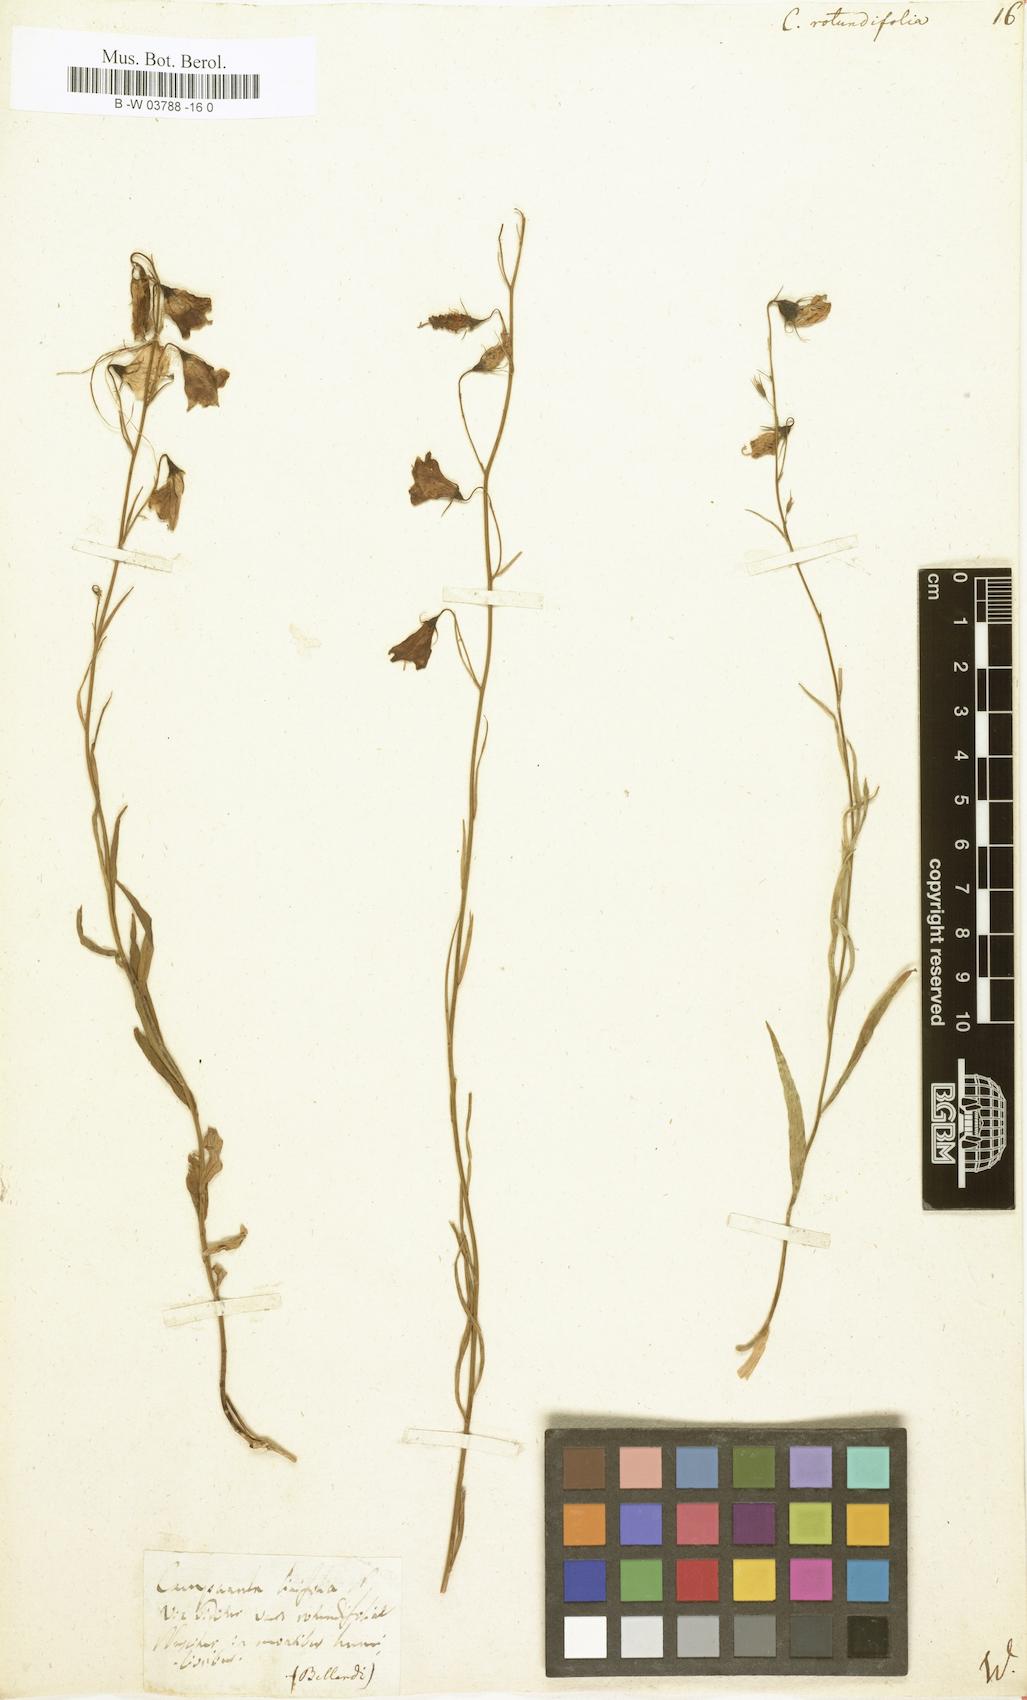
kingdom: Plantae
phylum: Tracheophyta
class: Magnoliopsida
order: Asterales
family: Campanulaceae
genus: Campanula
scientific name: Campanula rotundifolia
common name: Harebell
